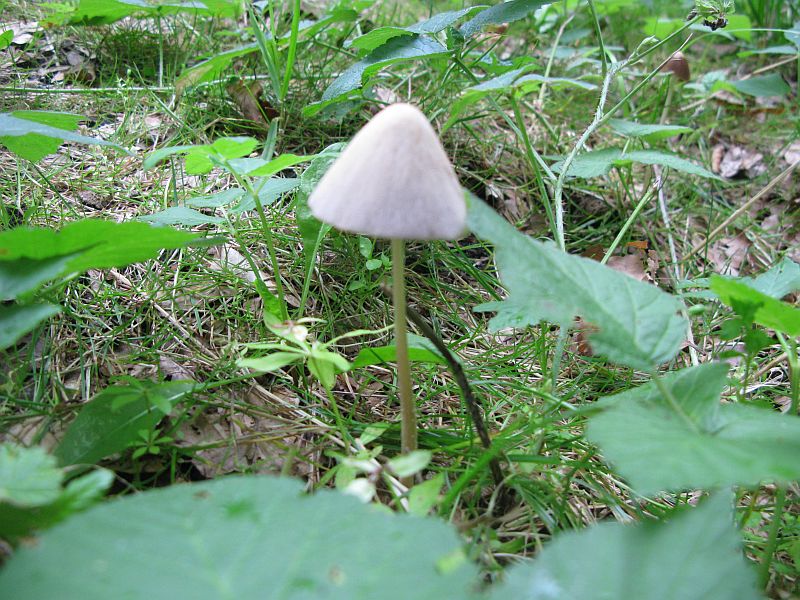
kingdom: Fungi
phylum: Basidiomycota
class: Agaricomycetes
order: Agaricales
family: Psathyrellaceae
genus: Parasola
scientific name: Parasola conopilea
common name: kegle-hjulhat
